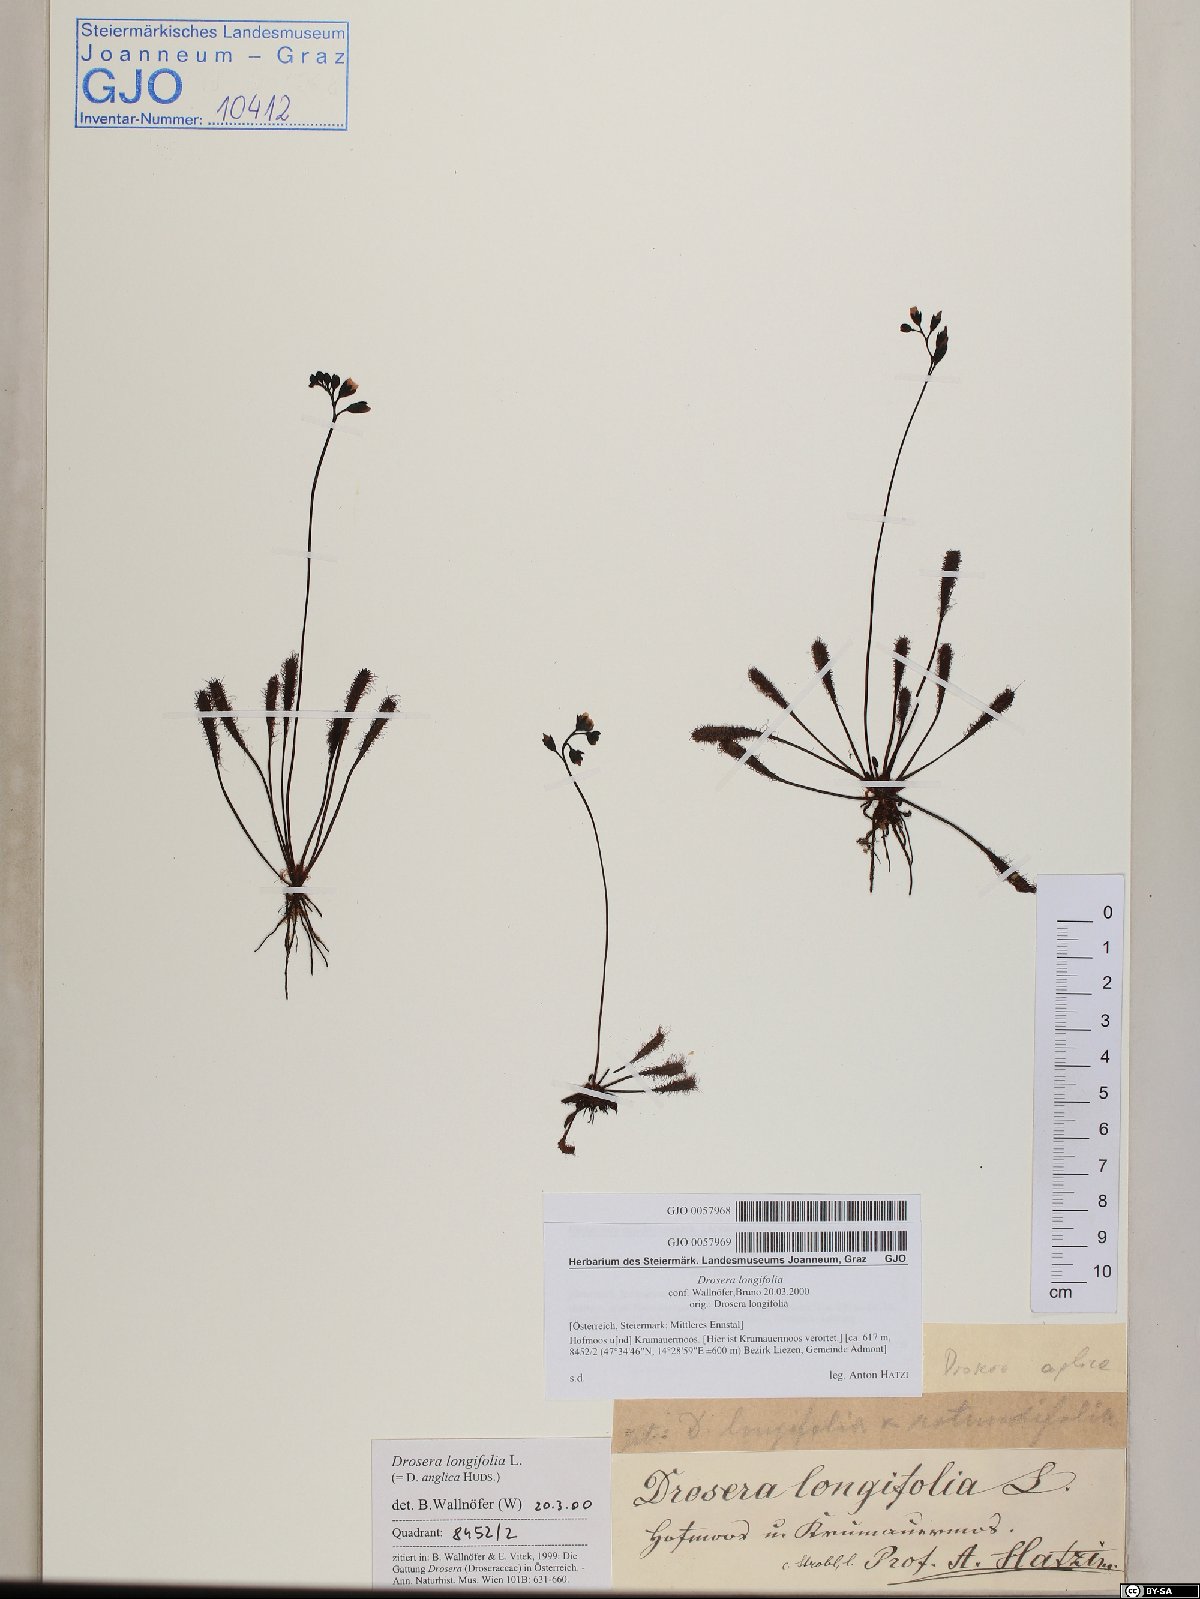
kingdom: Plantae
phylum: Tracheophyta
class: Magnoliopsida
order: Caryophyllales
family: Droseraceae
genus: Drosera
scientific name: Drosera anglica
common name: Great sundew
